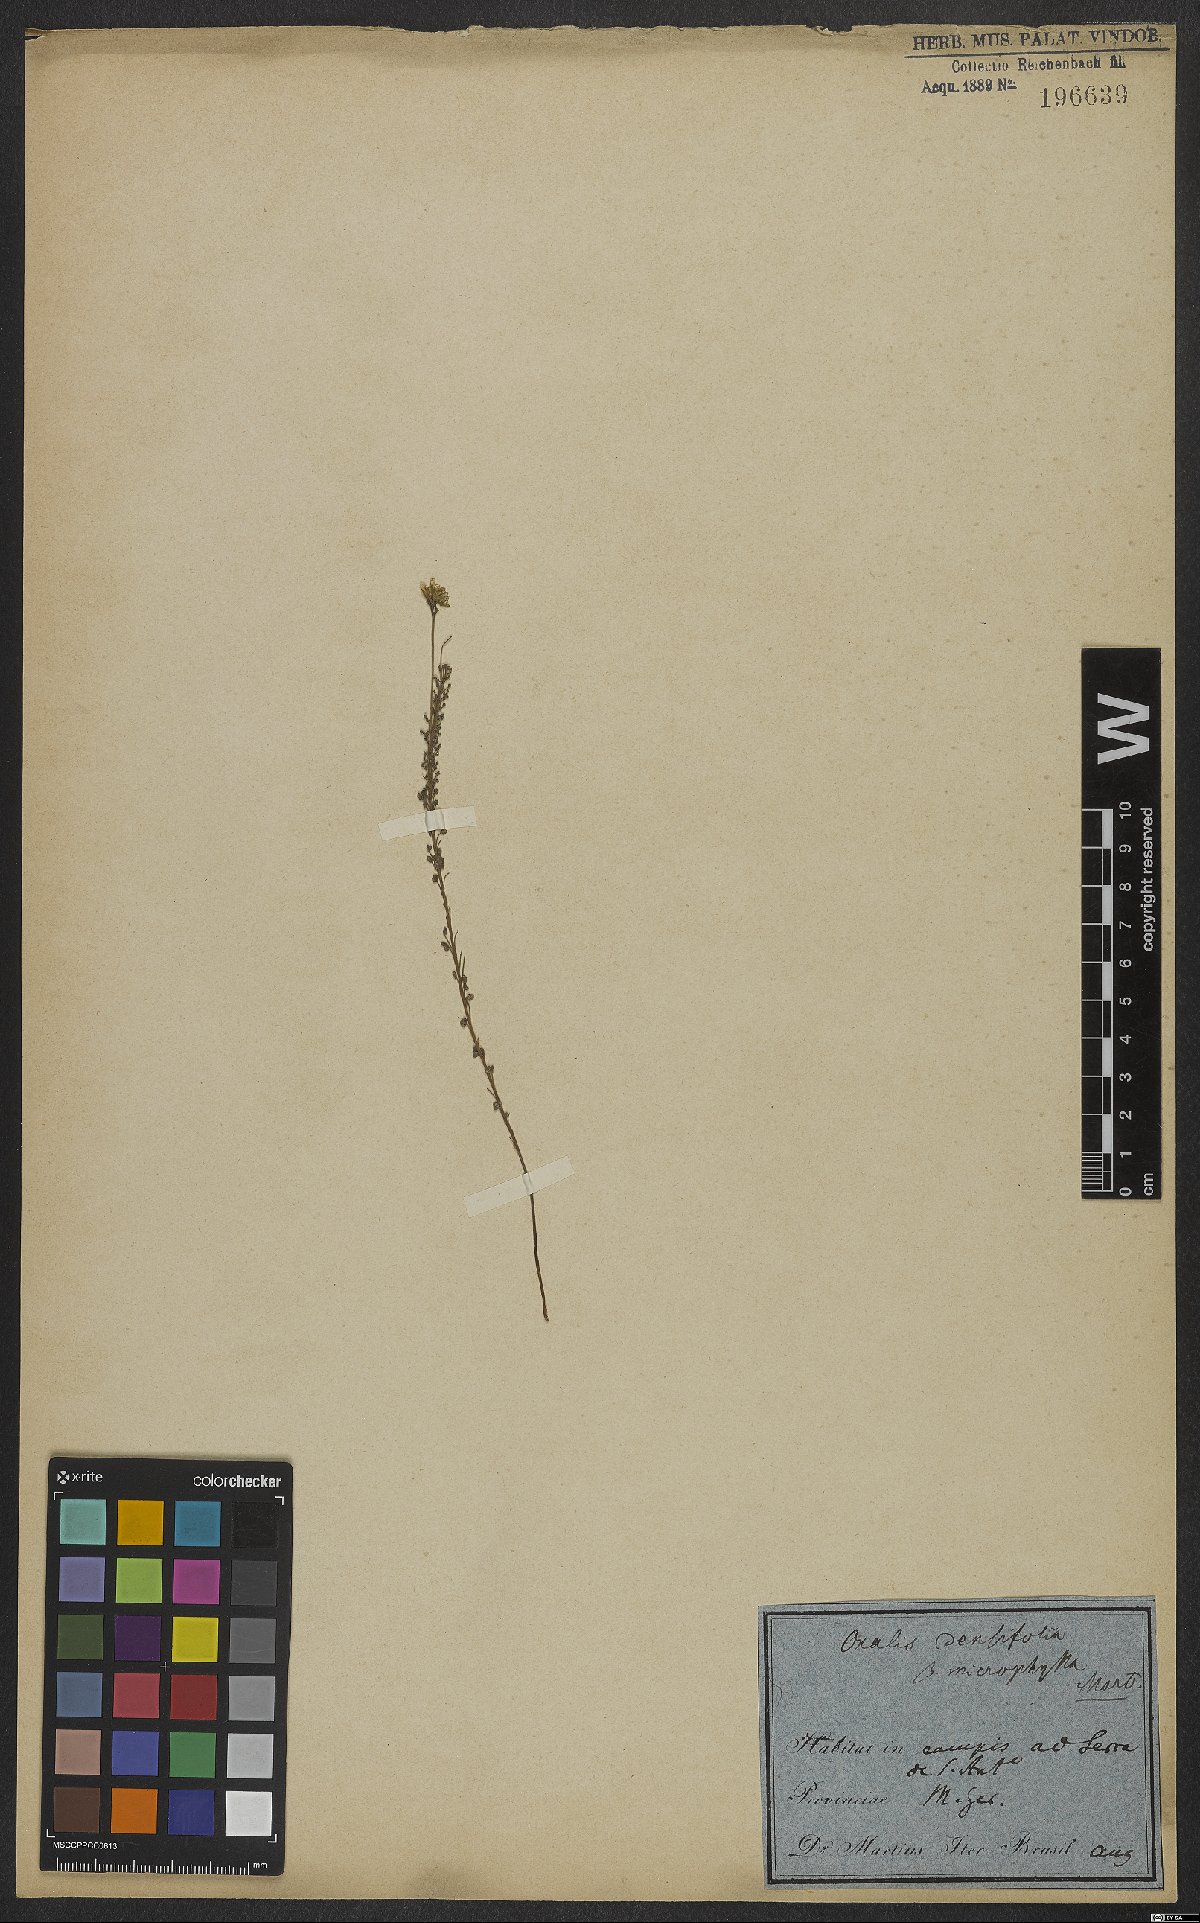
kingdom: Plantae
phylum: Tracheophyta
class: Magnoliopsida
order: Oxalidales
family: Oxalidaceae
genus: Oxalis
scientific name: Oxalis confertifolia
